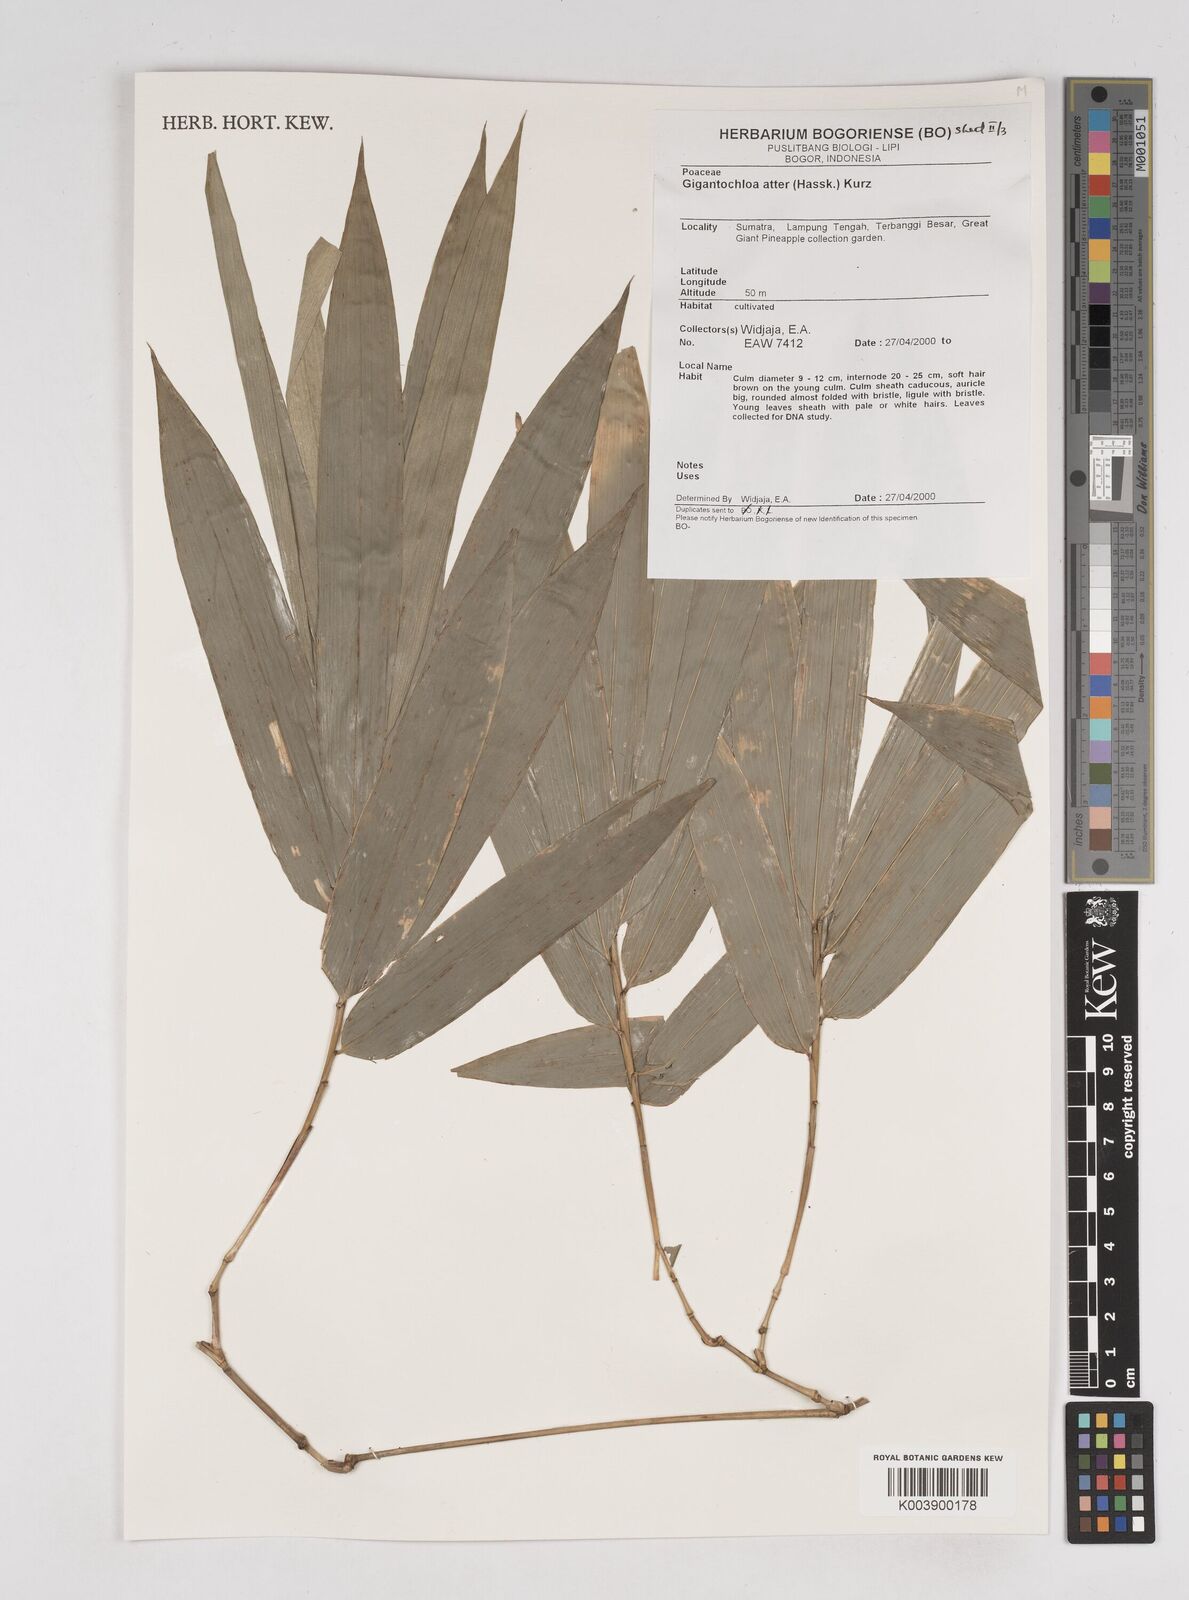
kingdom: Plantae
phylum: Tracheophyta
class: Liliopsida
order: Poales
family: Poaceae
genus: Gigantochloa
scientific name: Gigantochloa atter
